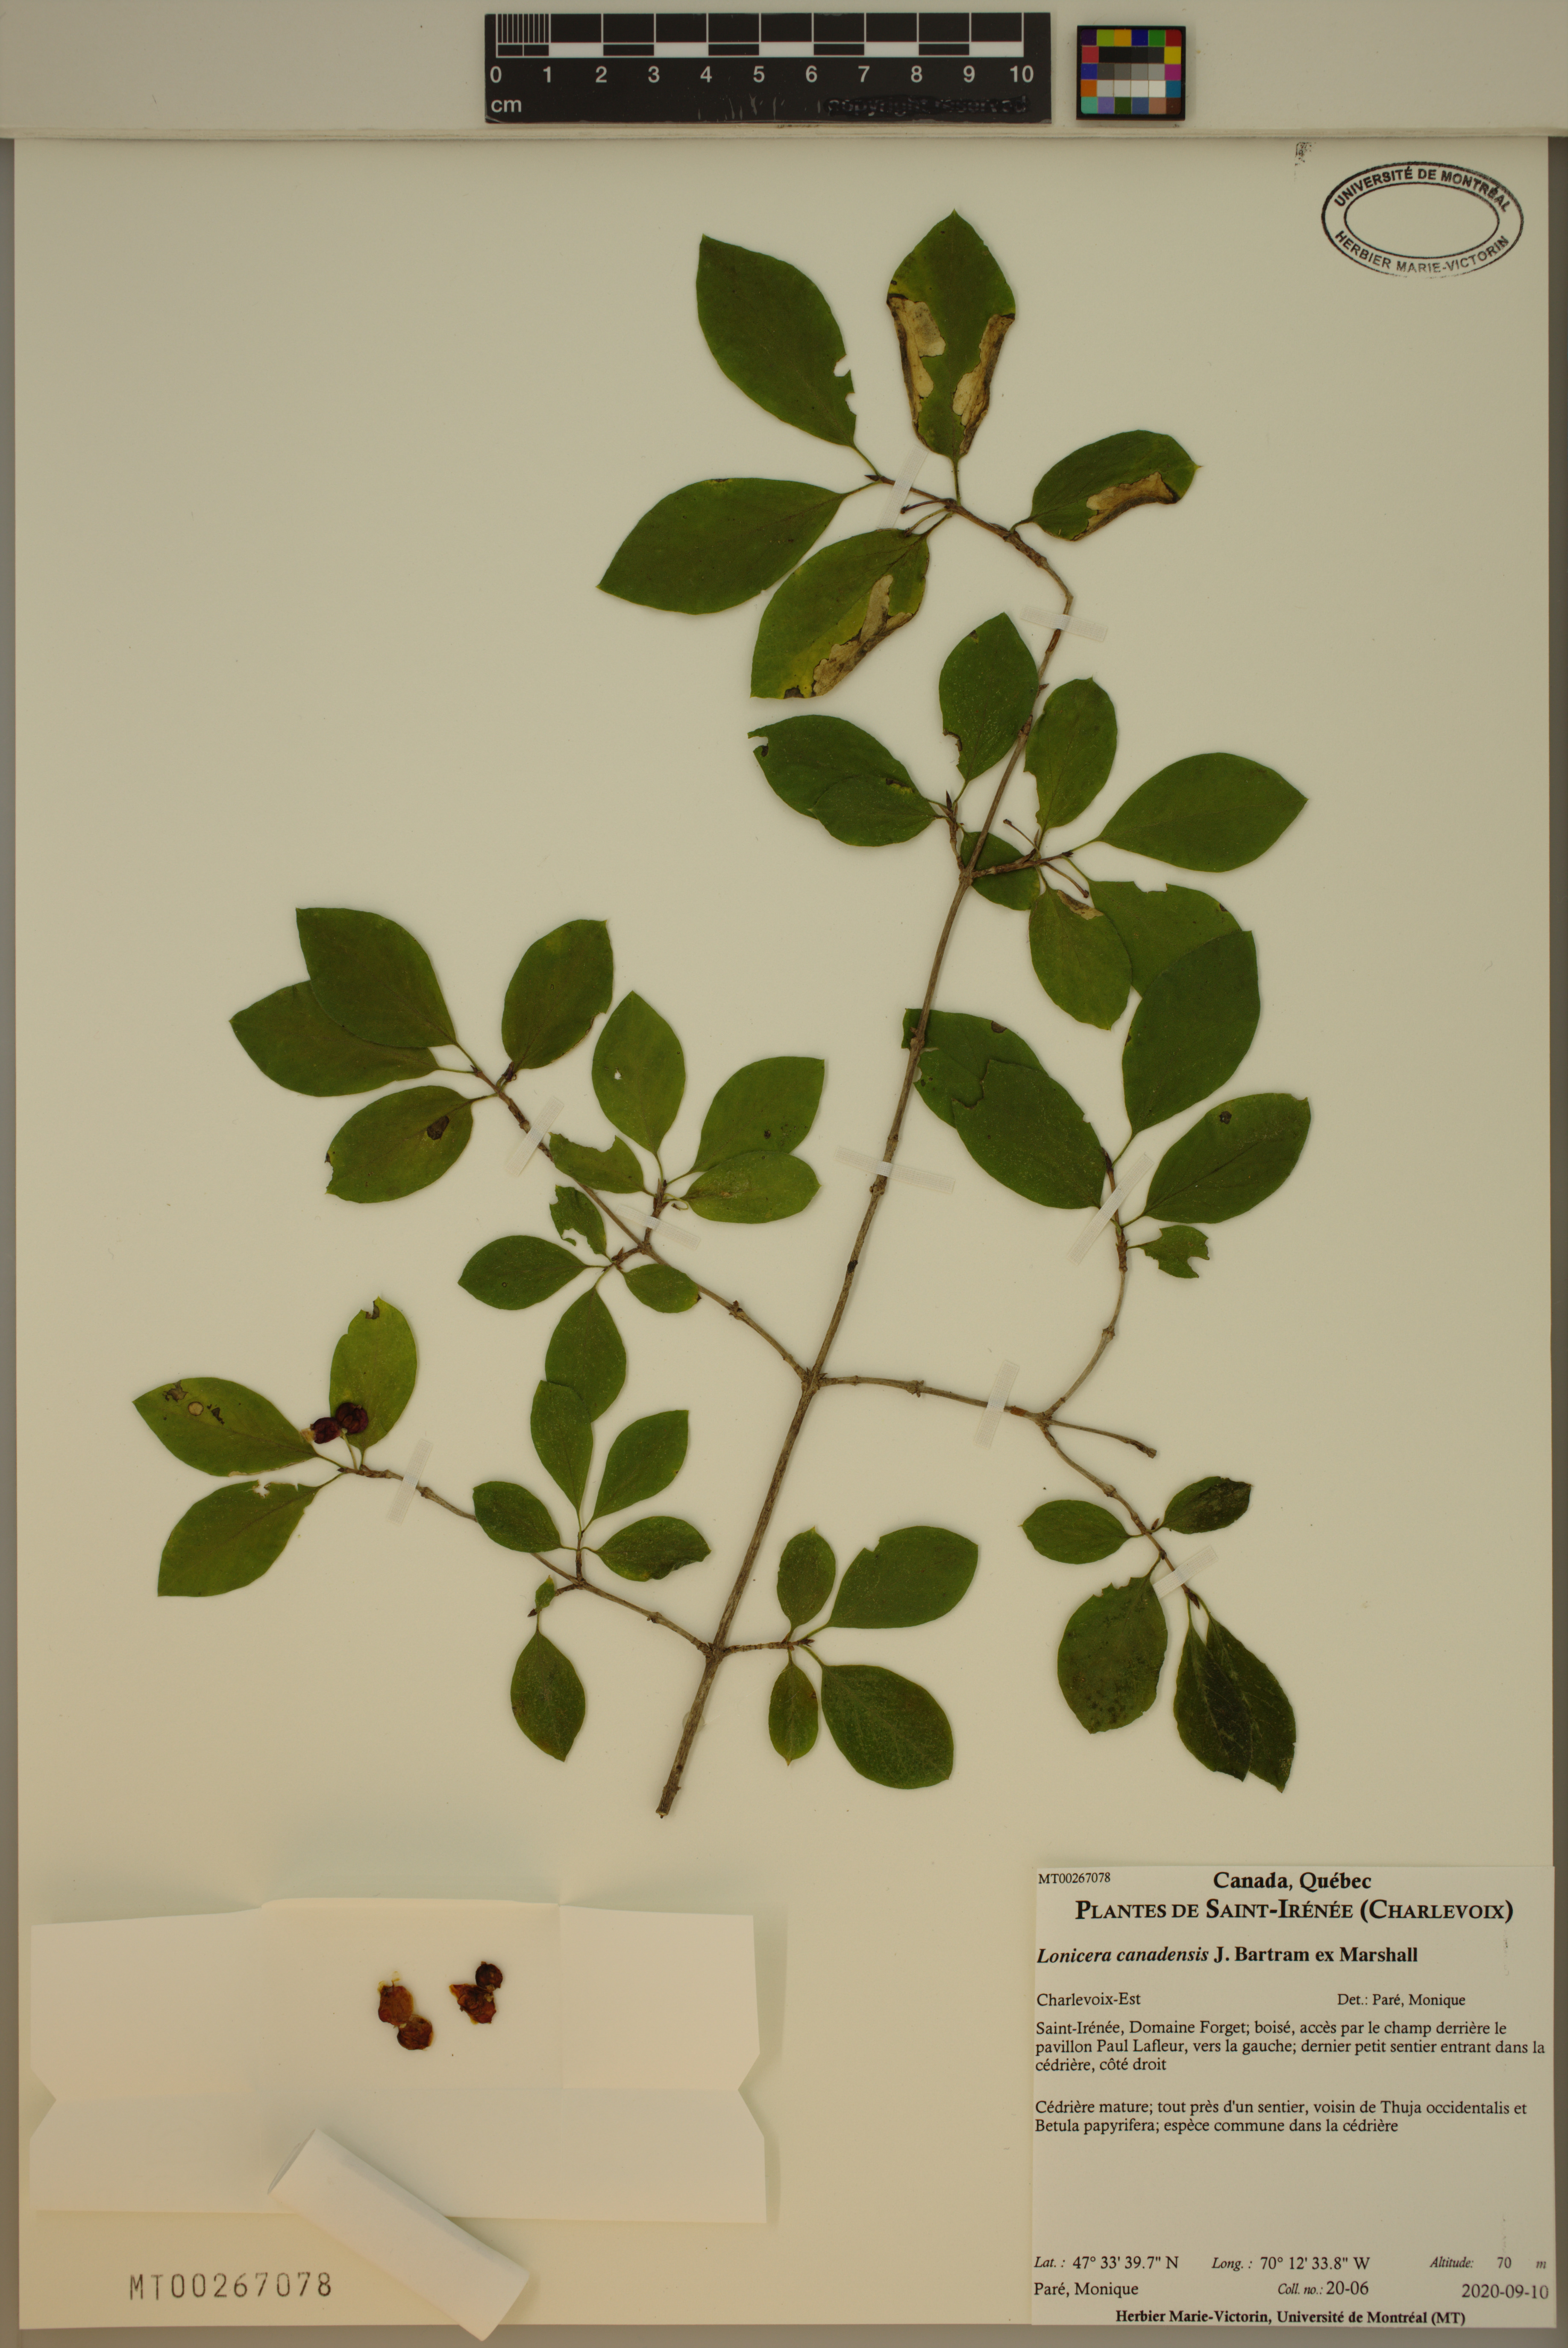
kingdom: Plantae
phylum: Tracheophyta
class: Magnoliopsida
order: Dipsacales
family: Caprifoliaceae
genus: Lonicera
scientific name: Lonicera canadensis
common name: American fly-honeysuckle
